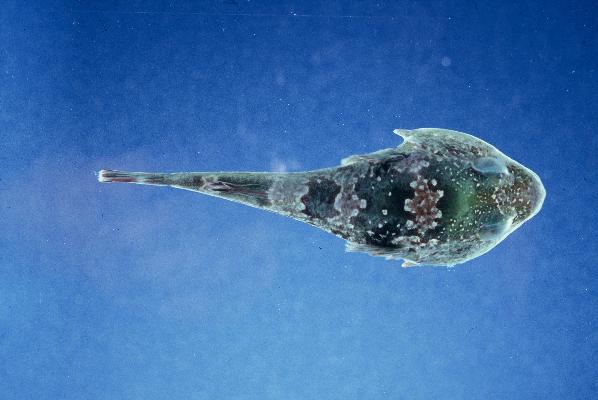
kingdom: Animalia
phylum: Chordata
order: Gobiesociformes
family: Gobiesocidae
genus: Chorisochismus
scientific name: Chorisochismus dentex
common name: Rocksucker
